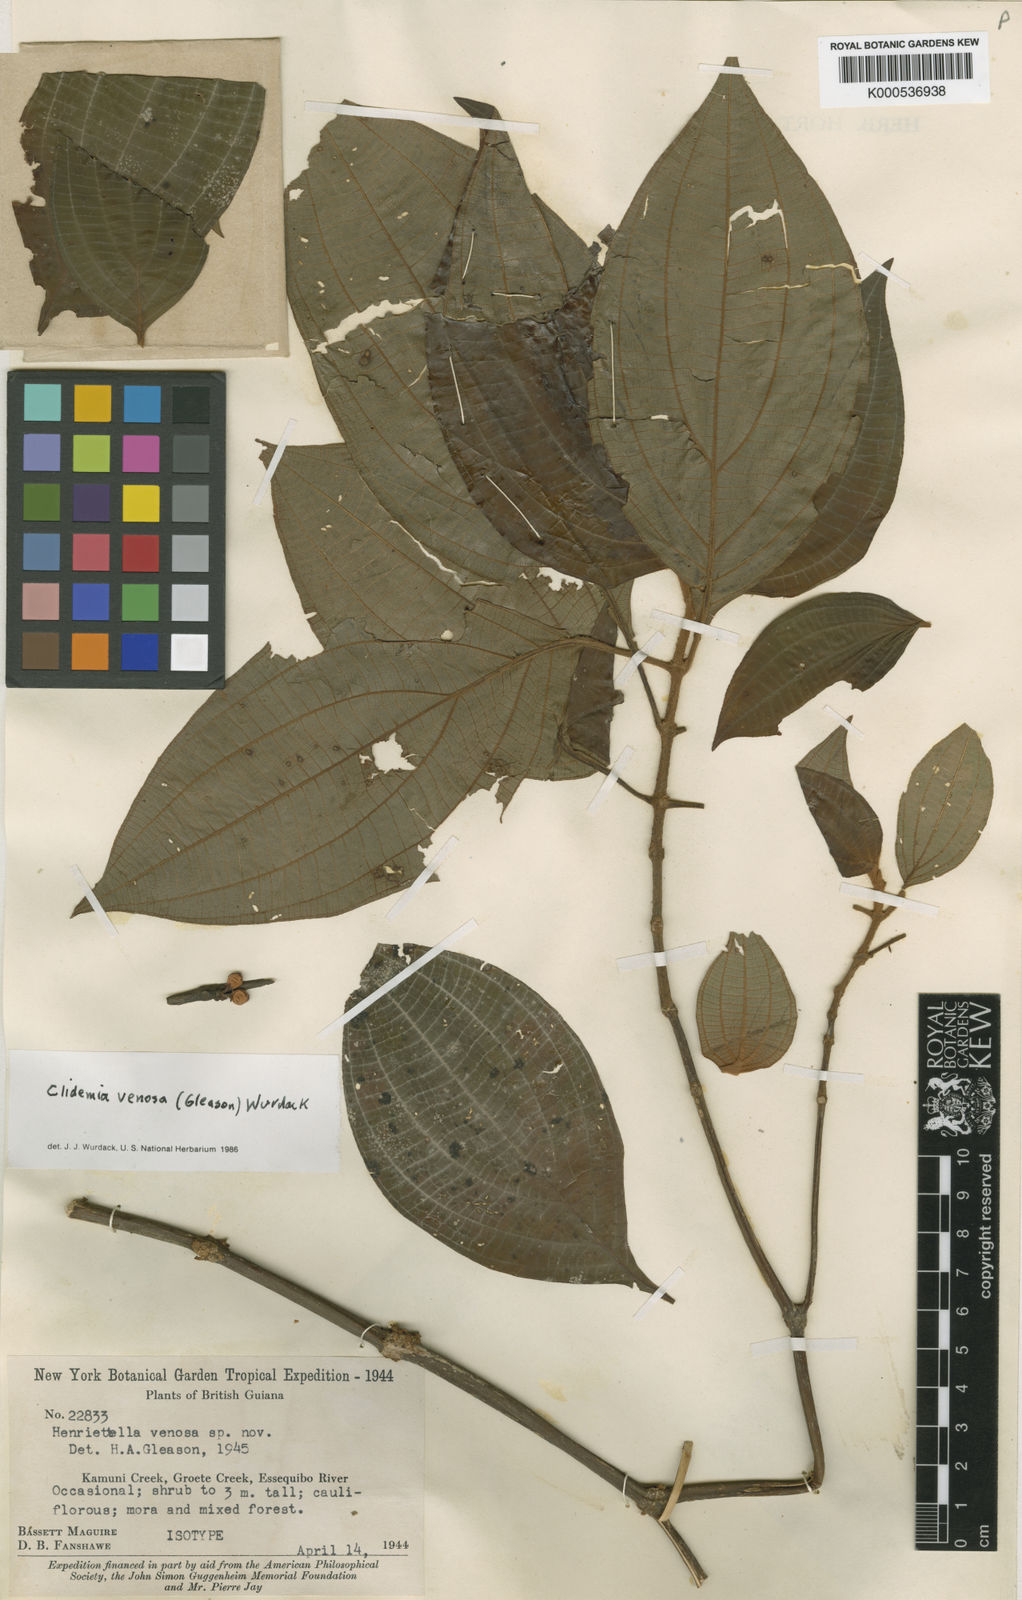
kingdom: Plantae
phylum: Tracheophyta
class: Magnoliopsida
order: Myrtales
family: Melastomataceae
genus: Miconia
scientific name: Miconia venosa
